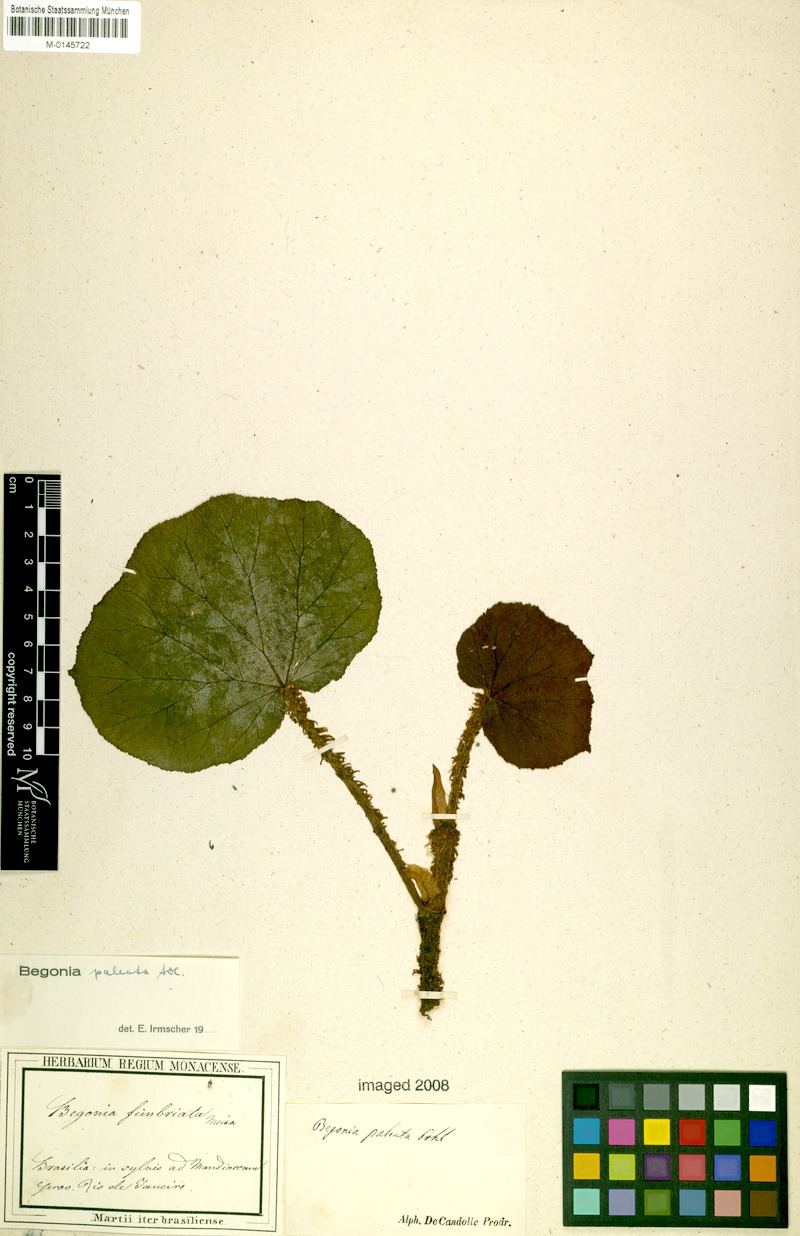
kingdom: Plantae
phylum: Tracheophyta
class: Magnoliopsida
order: Cucurbitales
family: Begoniaceae
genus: Begonia
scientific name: Begonia paleata
